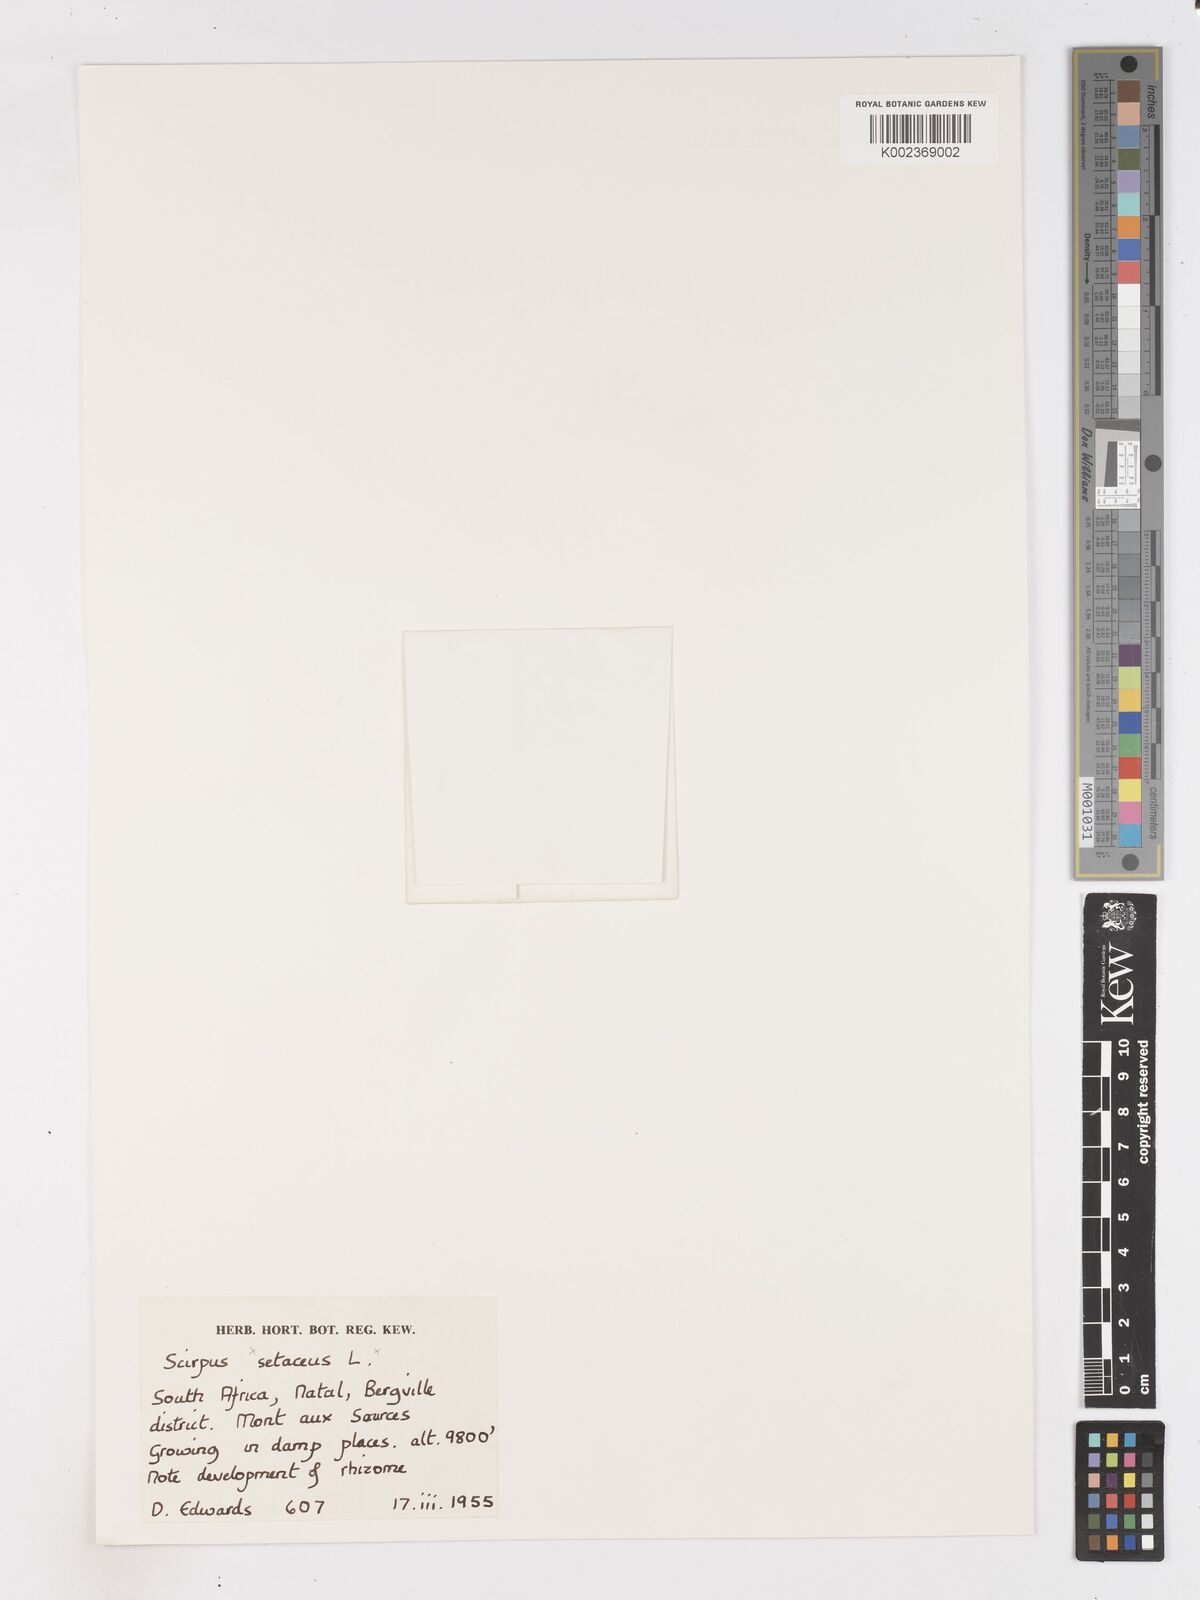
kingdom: Plantae
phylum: Tracheophyta
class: Liliopsida
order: Poales
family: Cyperaceae
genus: Isolepis
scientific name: Isolepis setacea
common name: Bristle club-rush
